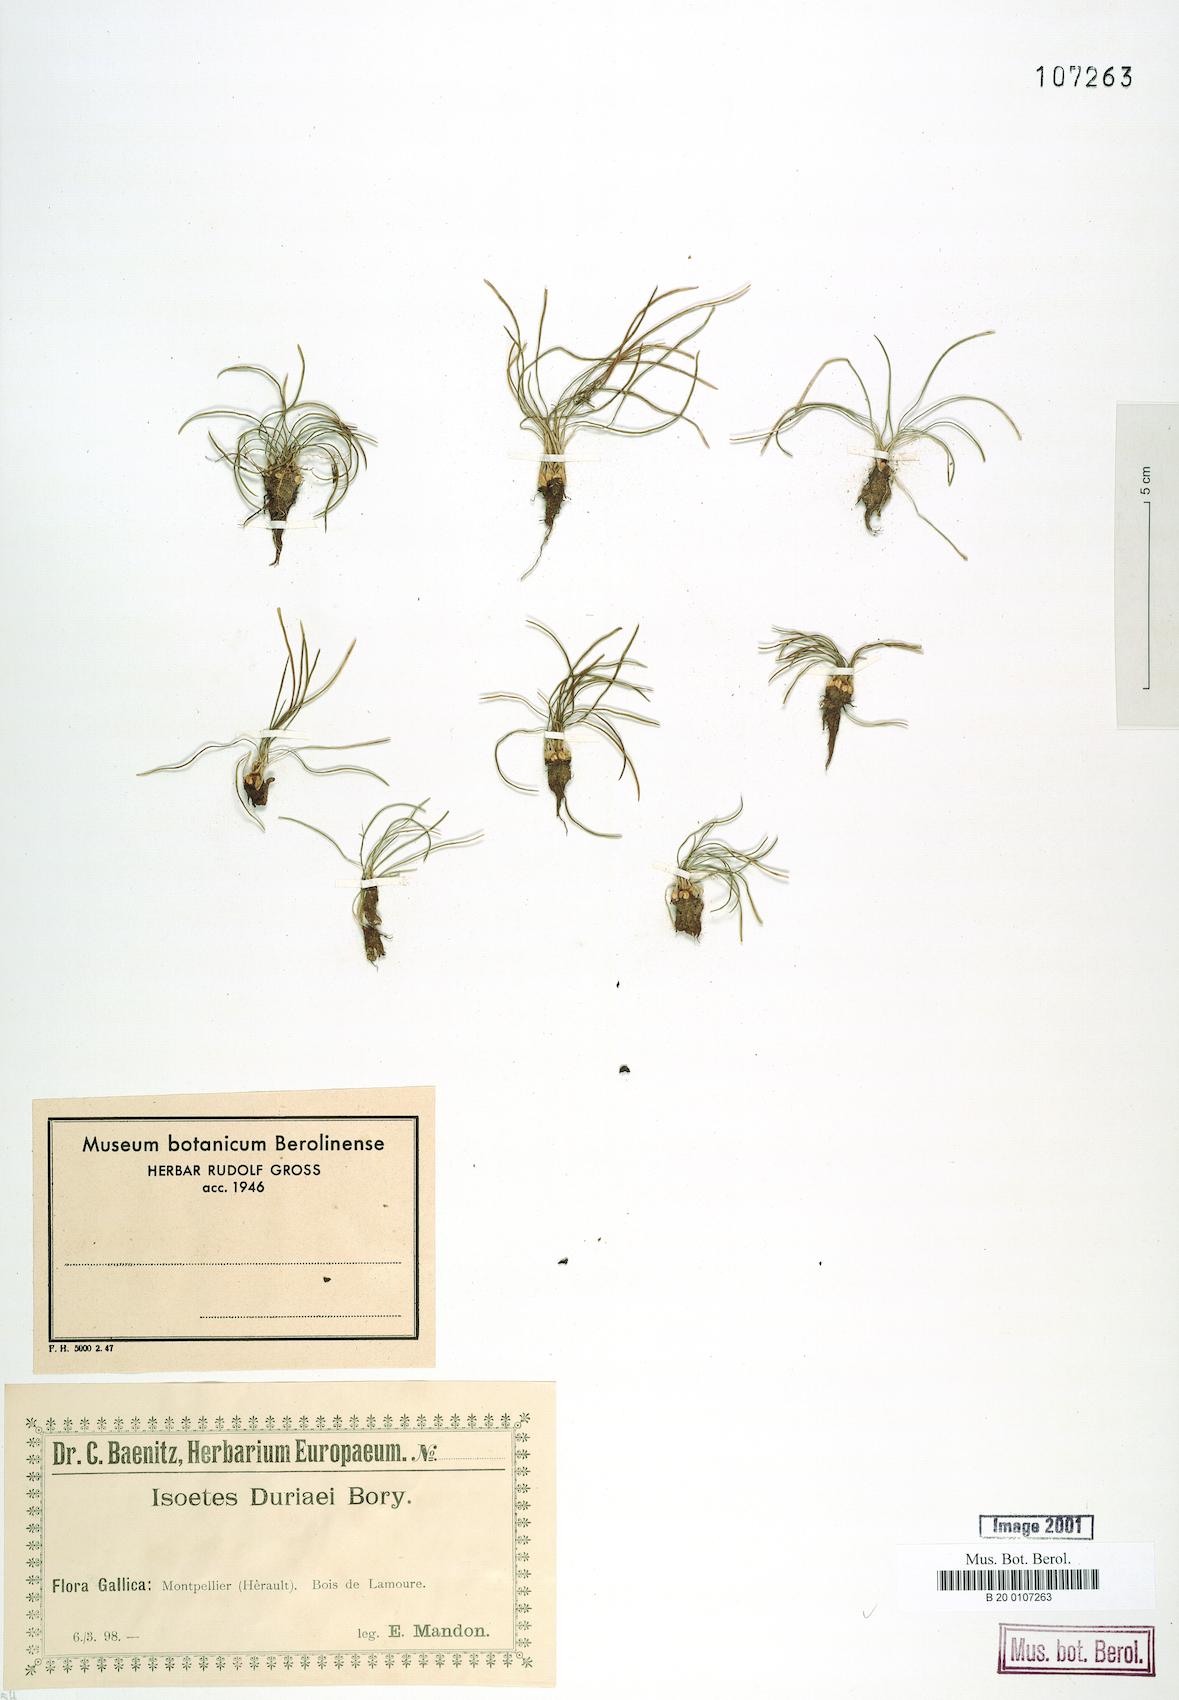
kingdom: Plantae
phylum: Tracheophyta
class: Lycopodiopsida
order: Isoetales
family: Isoetaceae
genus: Isoetes
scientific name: Isoetes duriei
